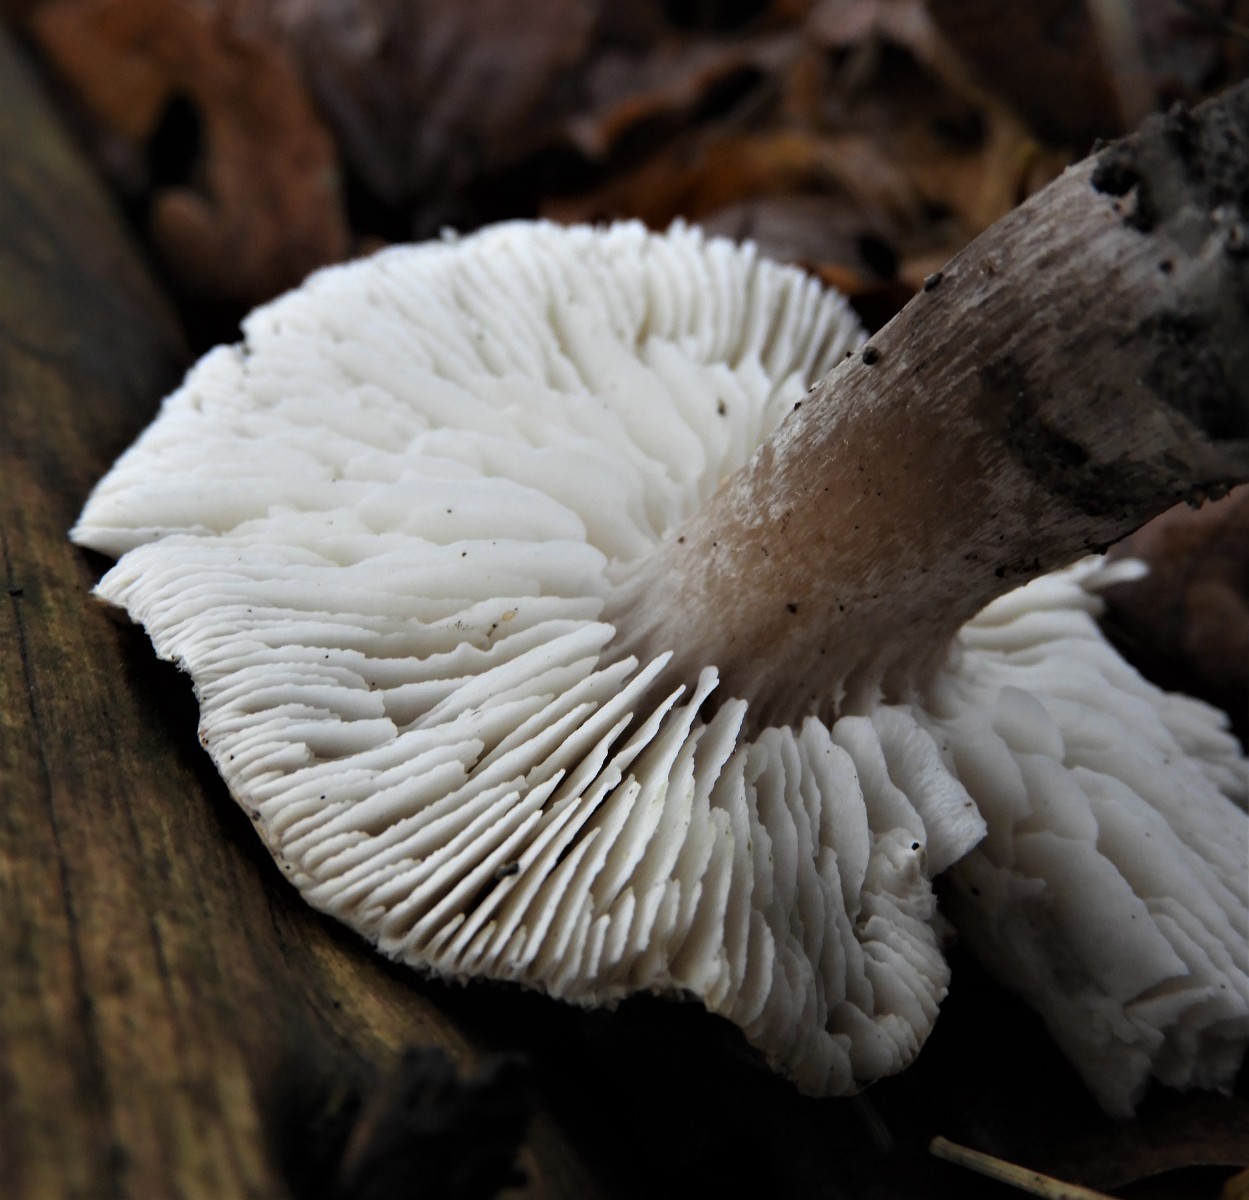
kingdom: Fungi
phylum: Basidiomycota
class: Agaricomycetes
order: Agaricales
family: Tricholomataceae
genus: Tricholoma
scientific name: Tricholoma scalpturatum
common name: gulplettet ridderhat
